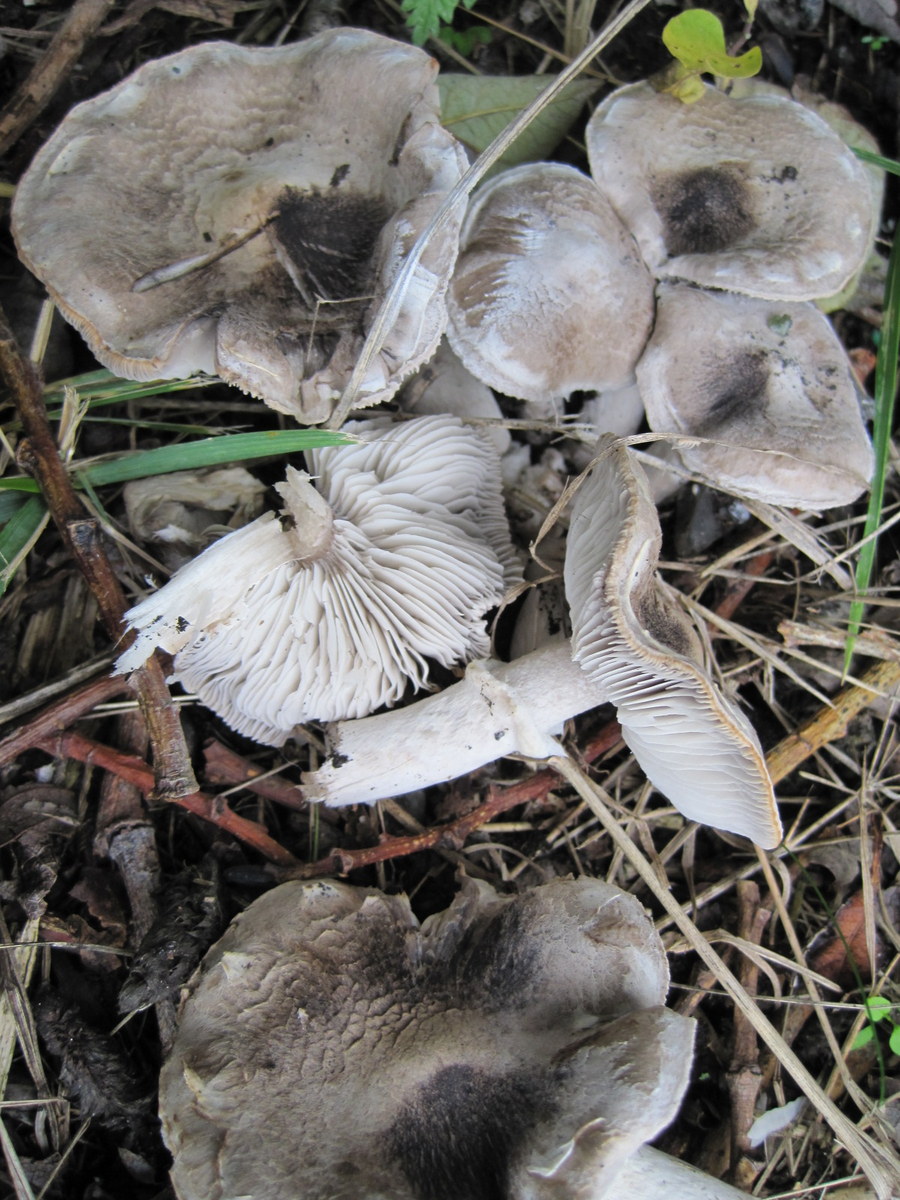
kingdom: Fungi
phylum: Basidiomycota
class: Agaricomycetes
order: Agaricales
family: Tricholomataceae
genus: Tricholoma
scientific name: Tricholoma cingulatum
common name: ring-ridderhat
